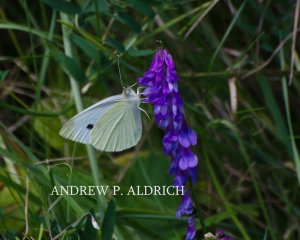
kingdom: Animalia
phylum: Arthropoda
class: Insecta
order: Lepidoptera
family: Pieridae
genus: Pieris
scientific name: Pieris rapae
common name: Cabbage White
